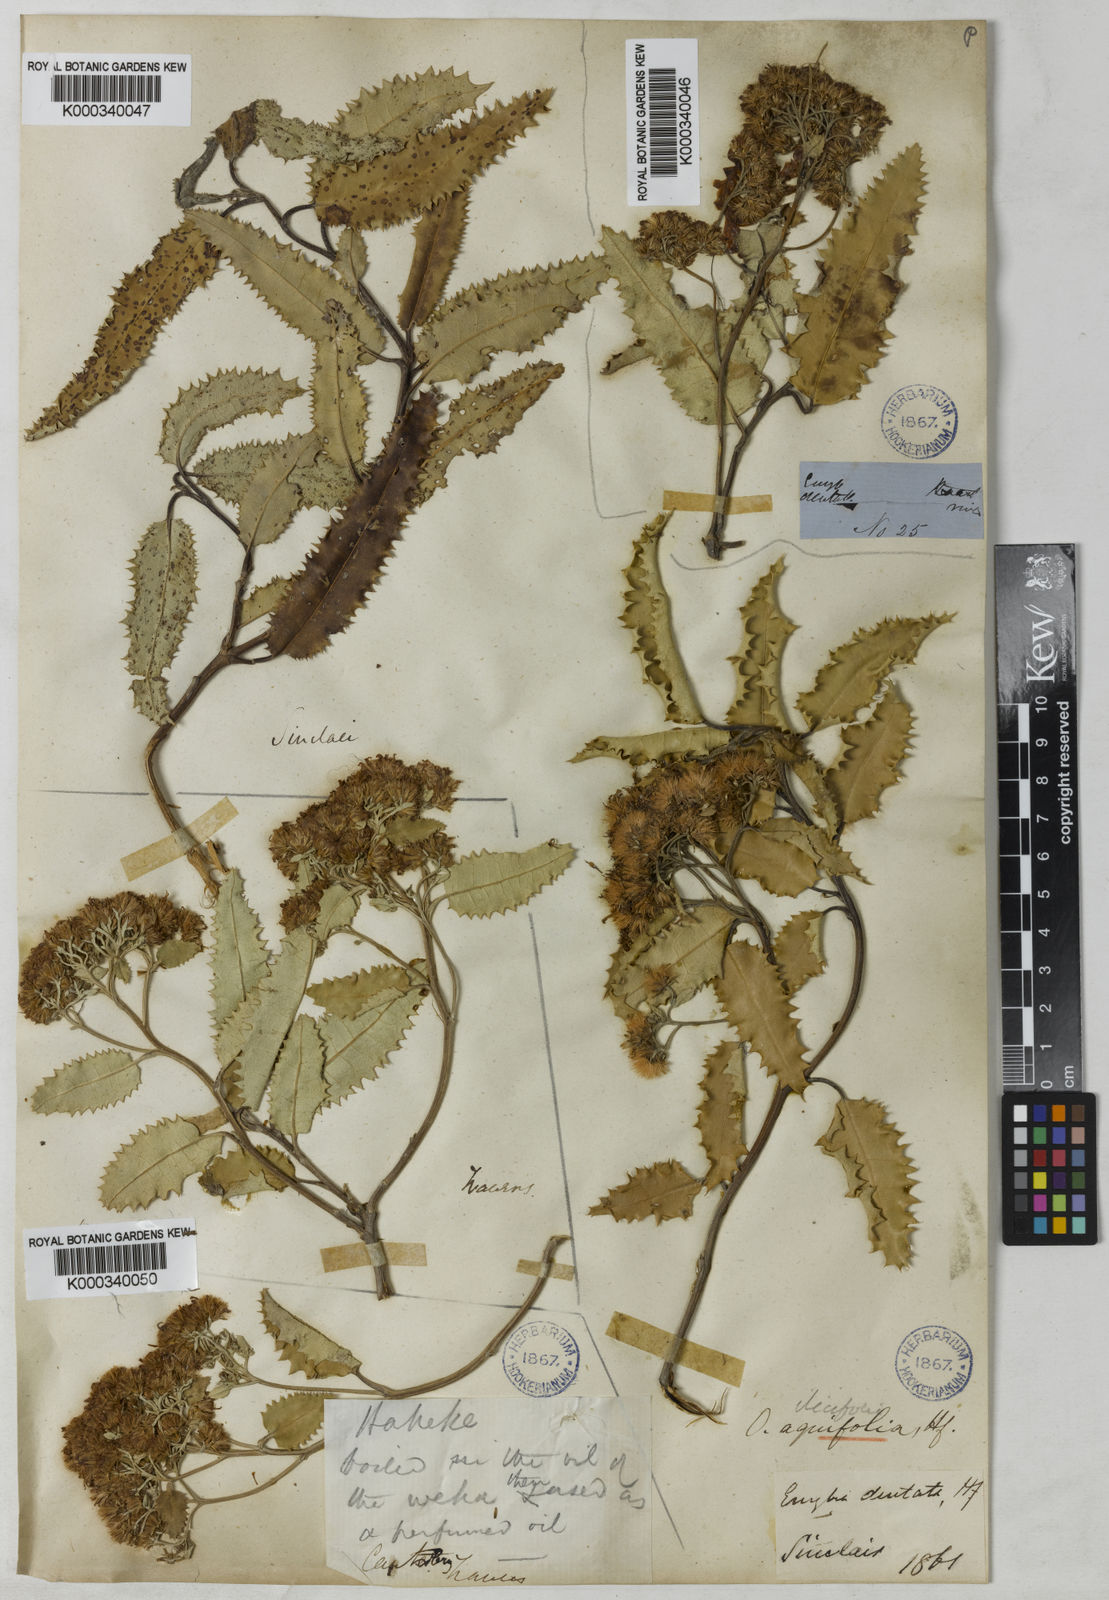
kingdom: Plantae
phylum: Tracheophyta
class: Magnoliopsida
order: Asterales
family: Asteraceae
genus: Olearia
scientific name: Olearia ilicifolia
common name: Maori-holly
